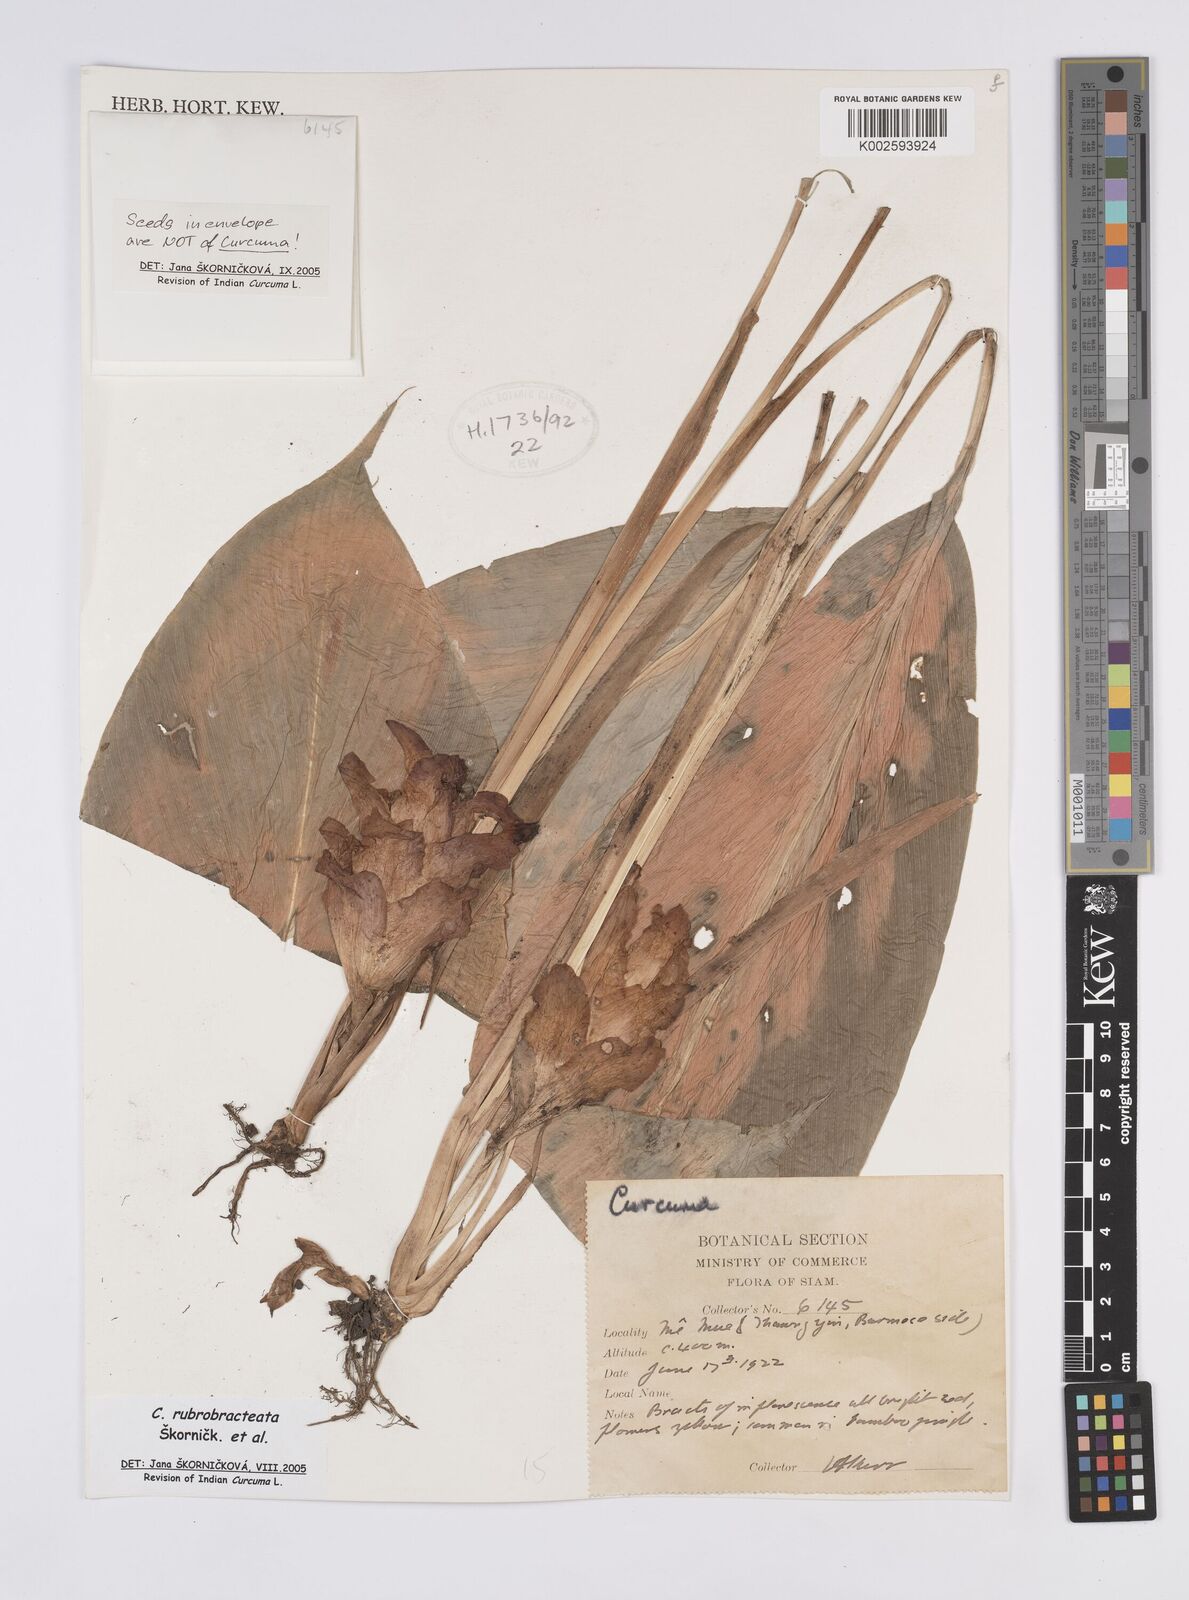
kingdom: Plantae
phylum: Tracheophyta
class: Liliopsida
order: Zingiberales
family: Zingiberaceae
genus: Curcuma
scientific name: Curcuma rubrobracteata
